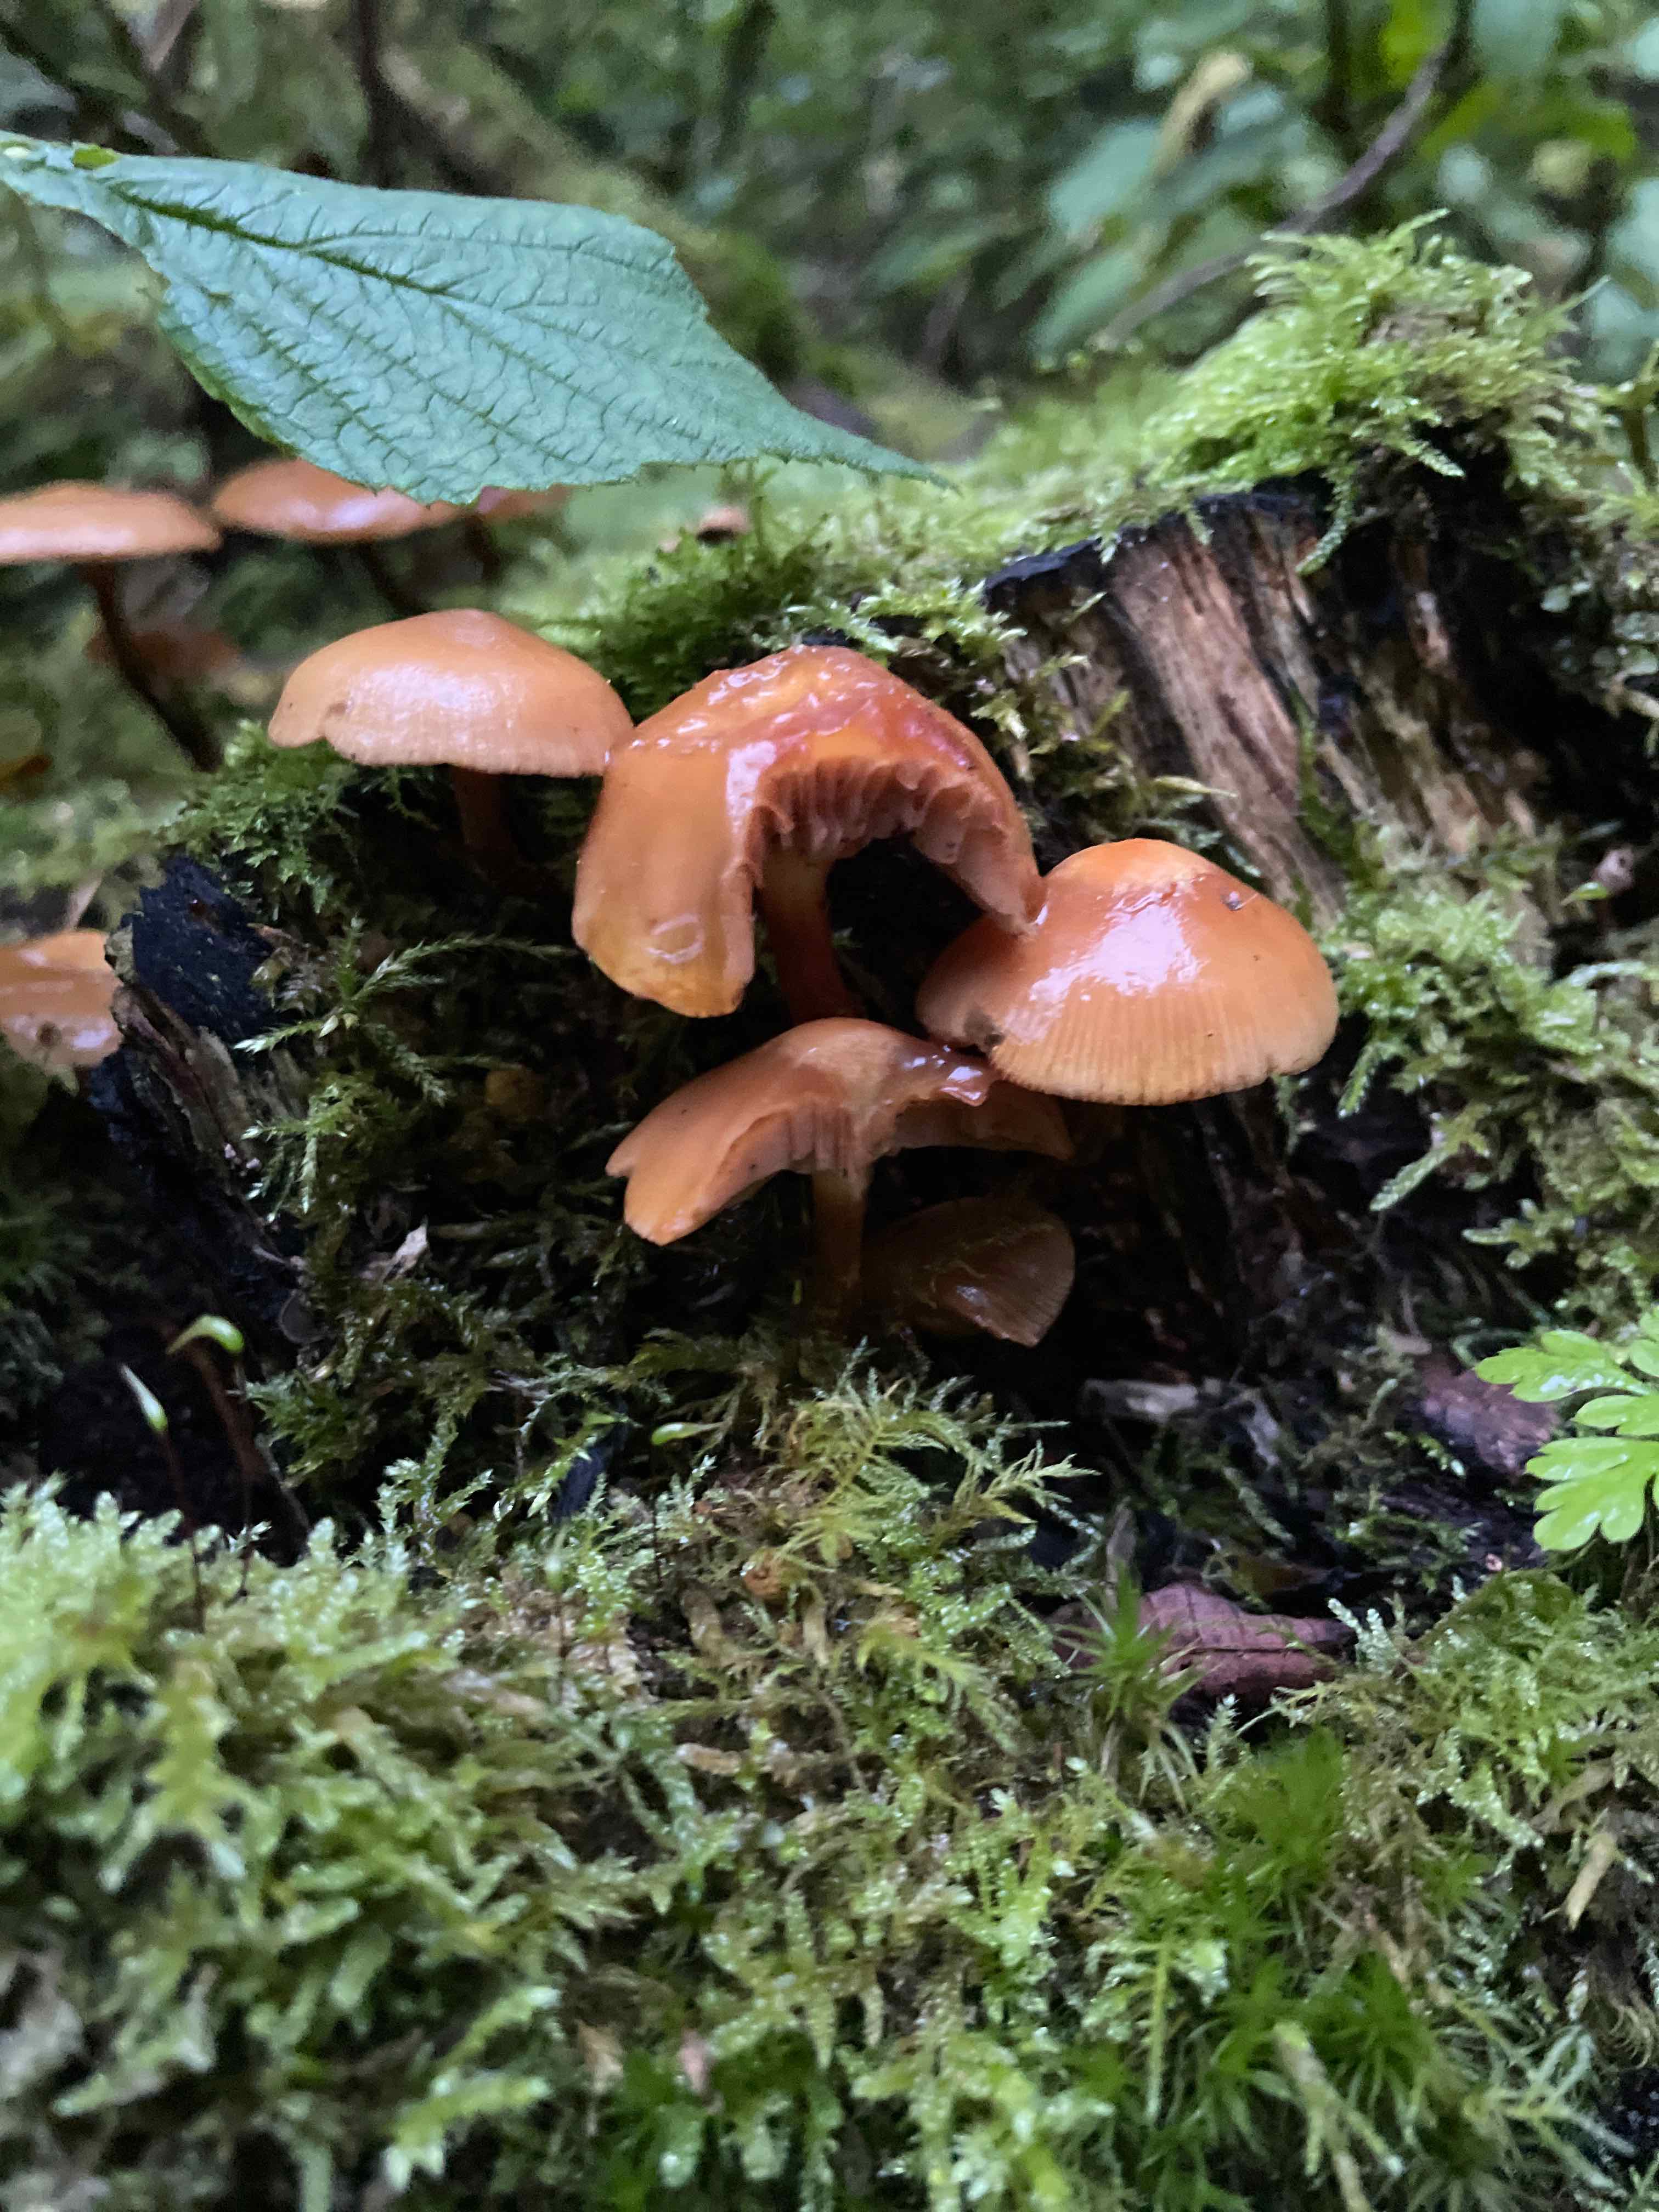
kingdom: Fungi
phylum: Basidiomycota
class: Agaricomycetes
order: Agaricales
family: Strophariaceae
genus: Kuehneromyces
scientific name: Kuehneromyces mutabilis
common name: foranderlig skælhat
